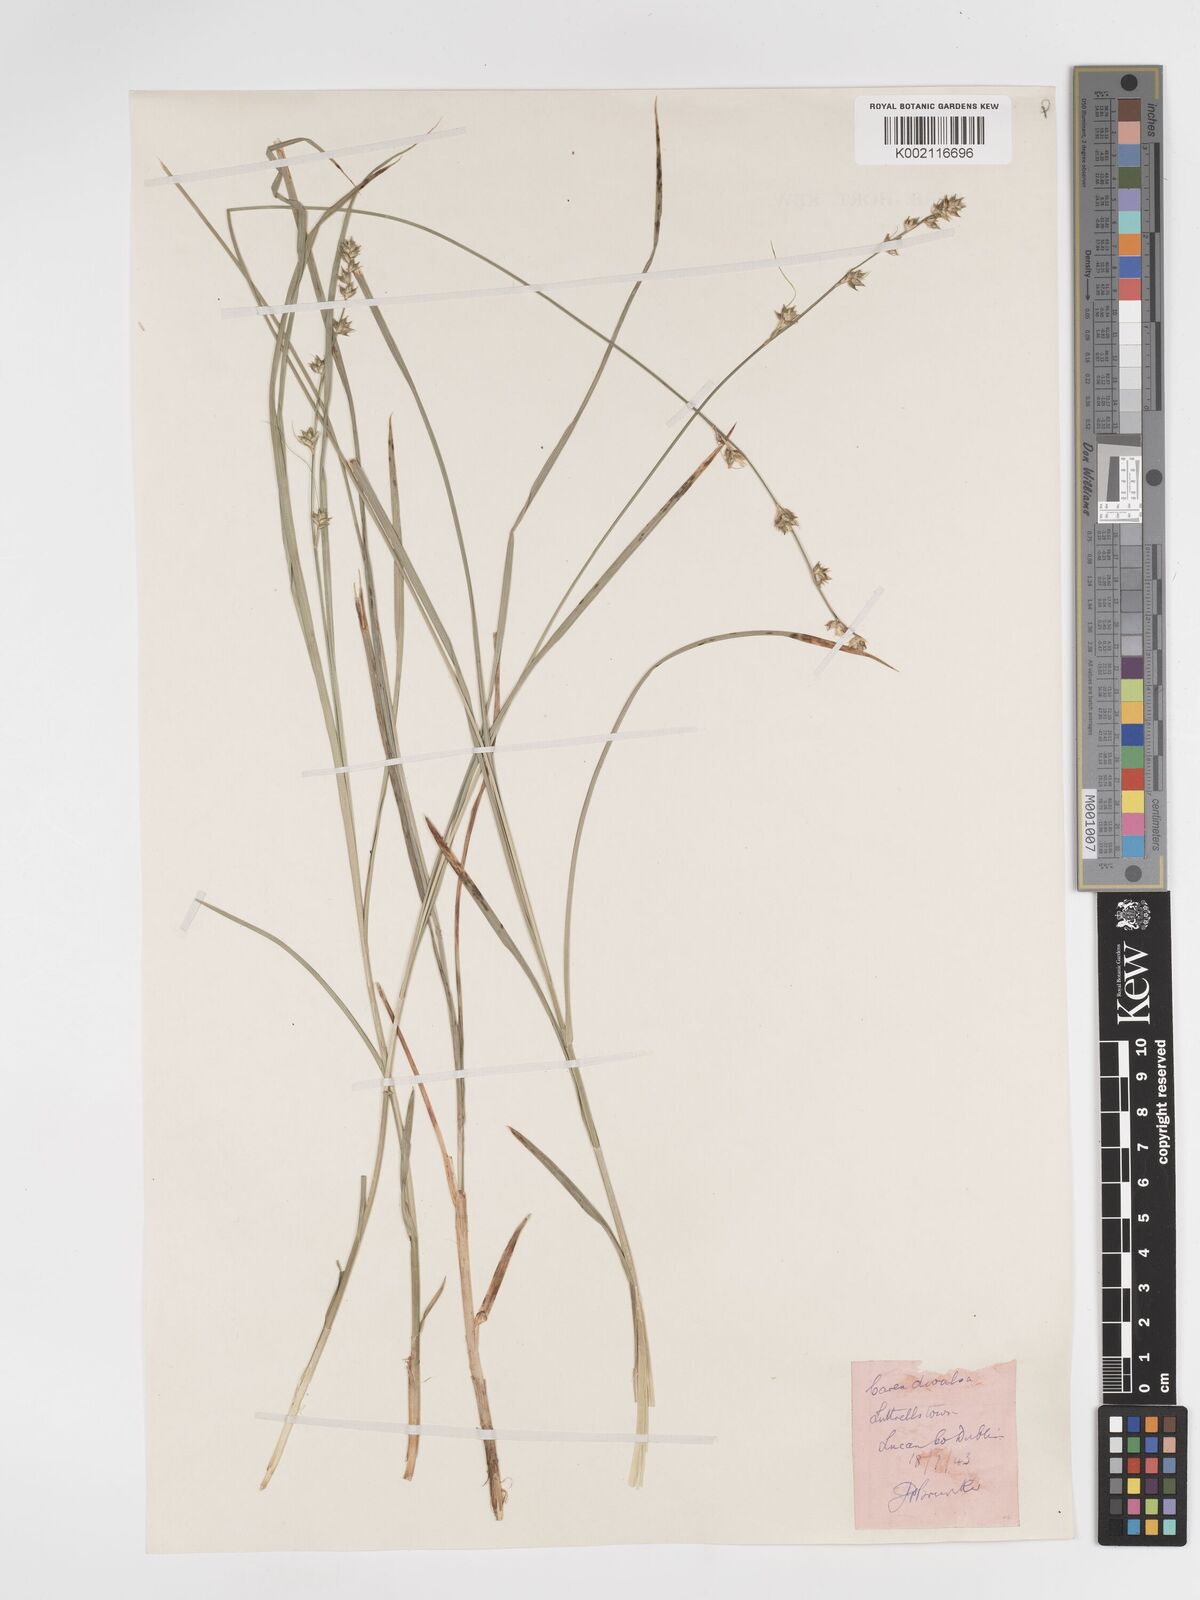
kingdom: Plantae
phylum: Tracheophyta
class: Liliopsida
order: Poales
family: Cyperaceae
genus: Carex
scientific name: Carex divulsa
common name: Grassland sedge
